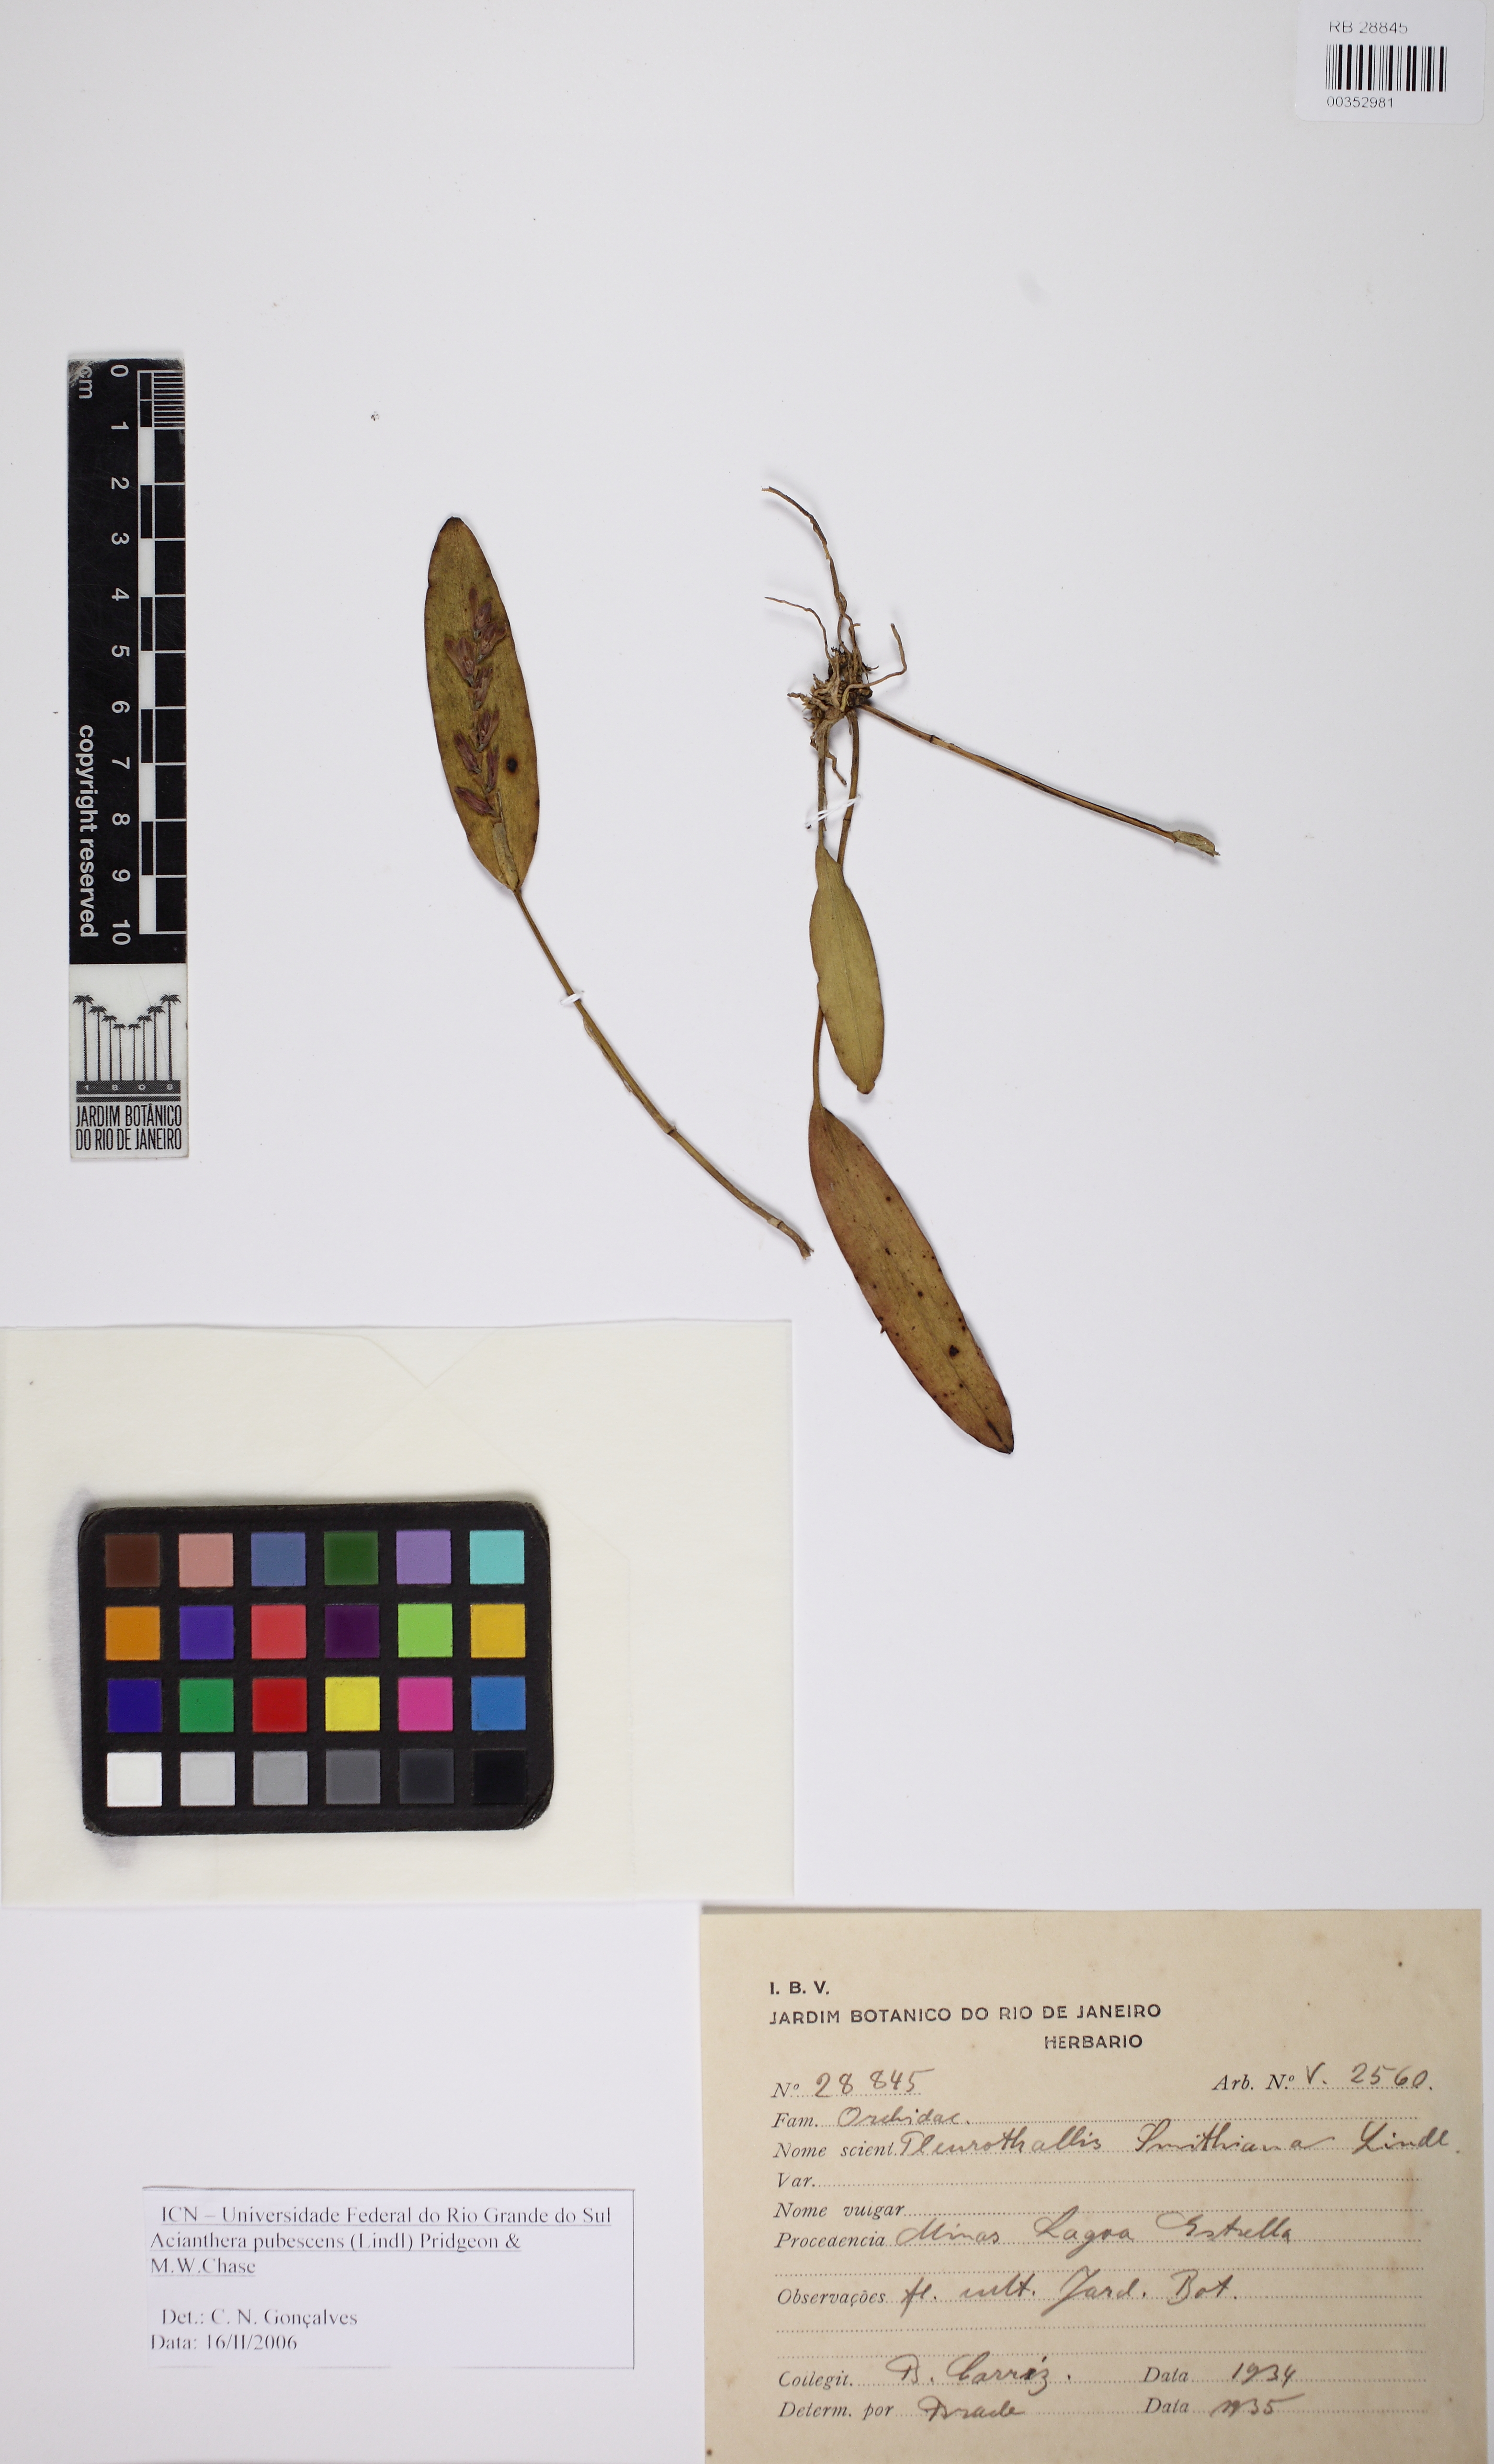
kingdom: Plantae
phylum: Tracheophyta
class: Liliopsida
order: Asparagales
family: Orchidaceae
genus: Acianthera
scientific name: Acianthera pubescens
